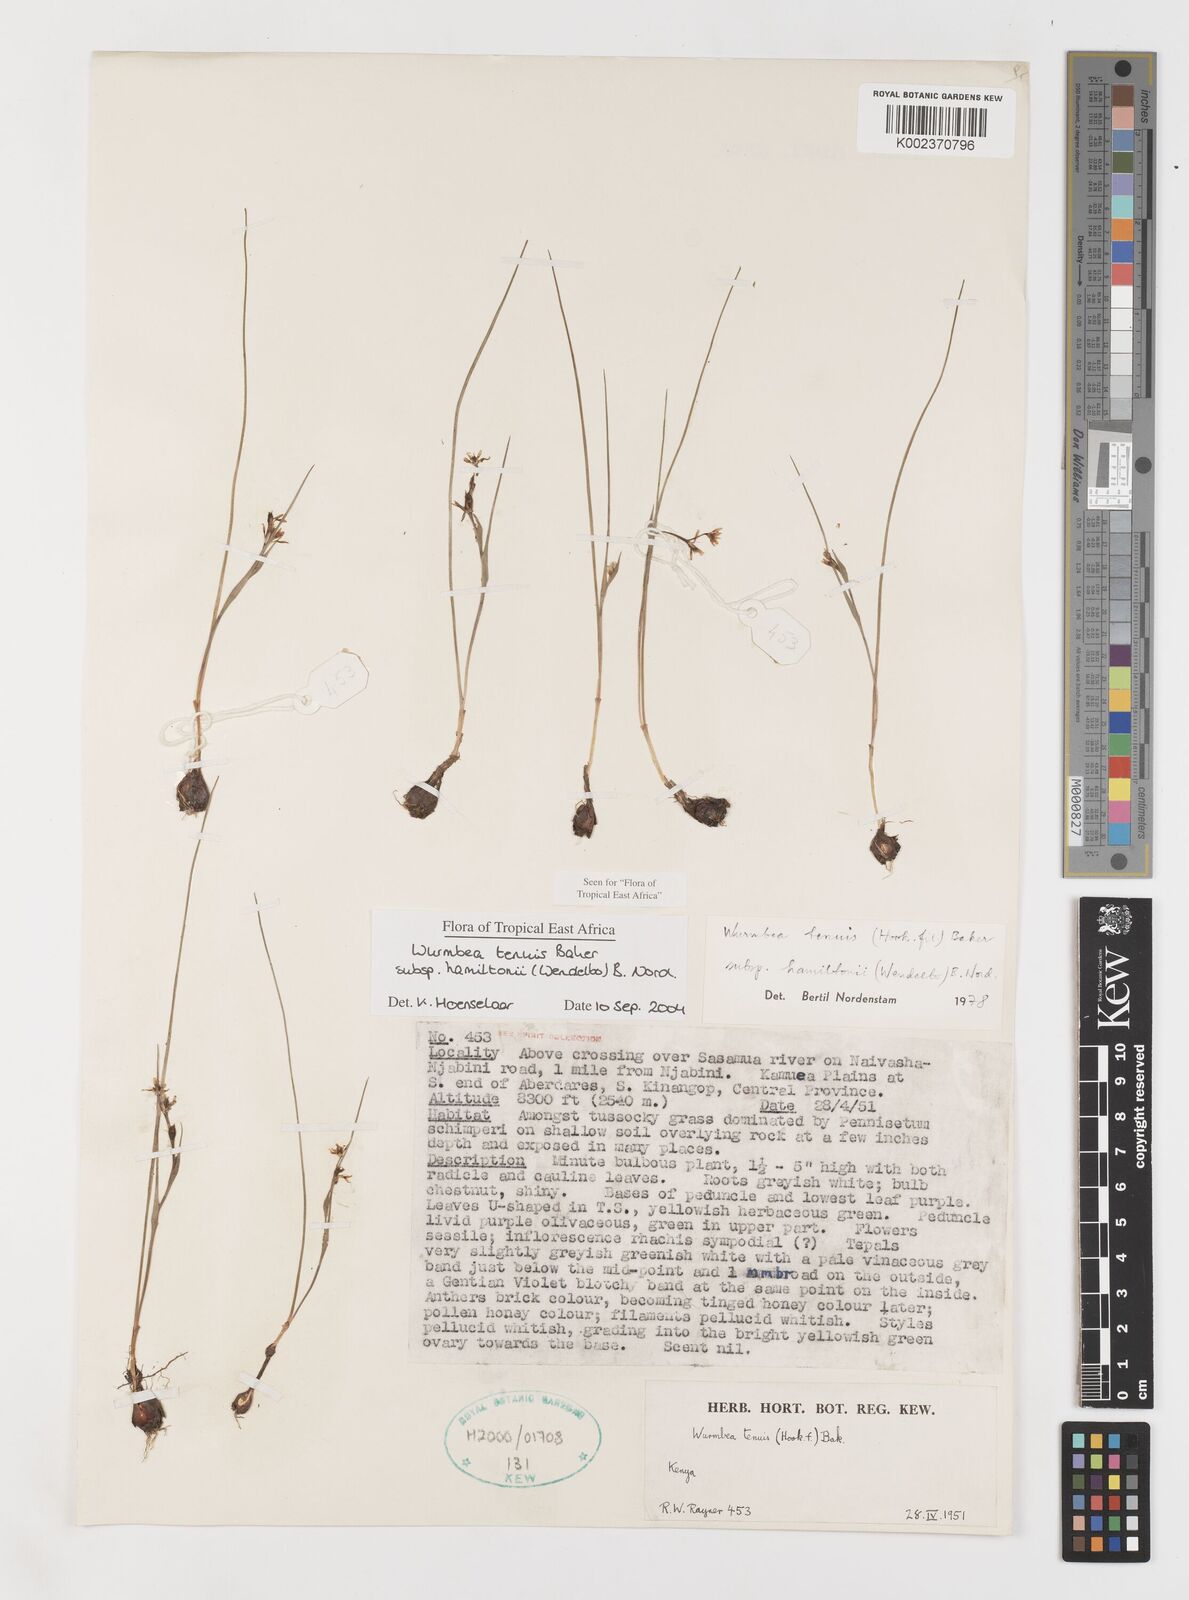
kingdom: Plantae
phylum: Tracheophyta
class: Liliopsida
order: Liliales
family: Colchicaceae
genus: Wurmbea
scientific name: Wurmbea tenuis
